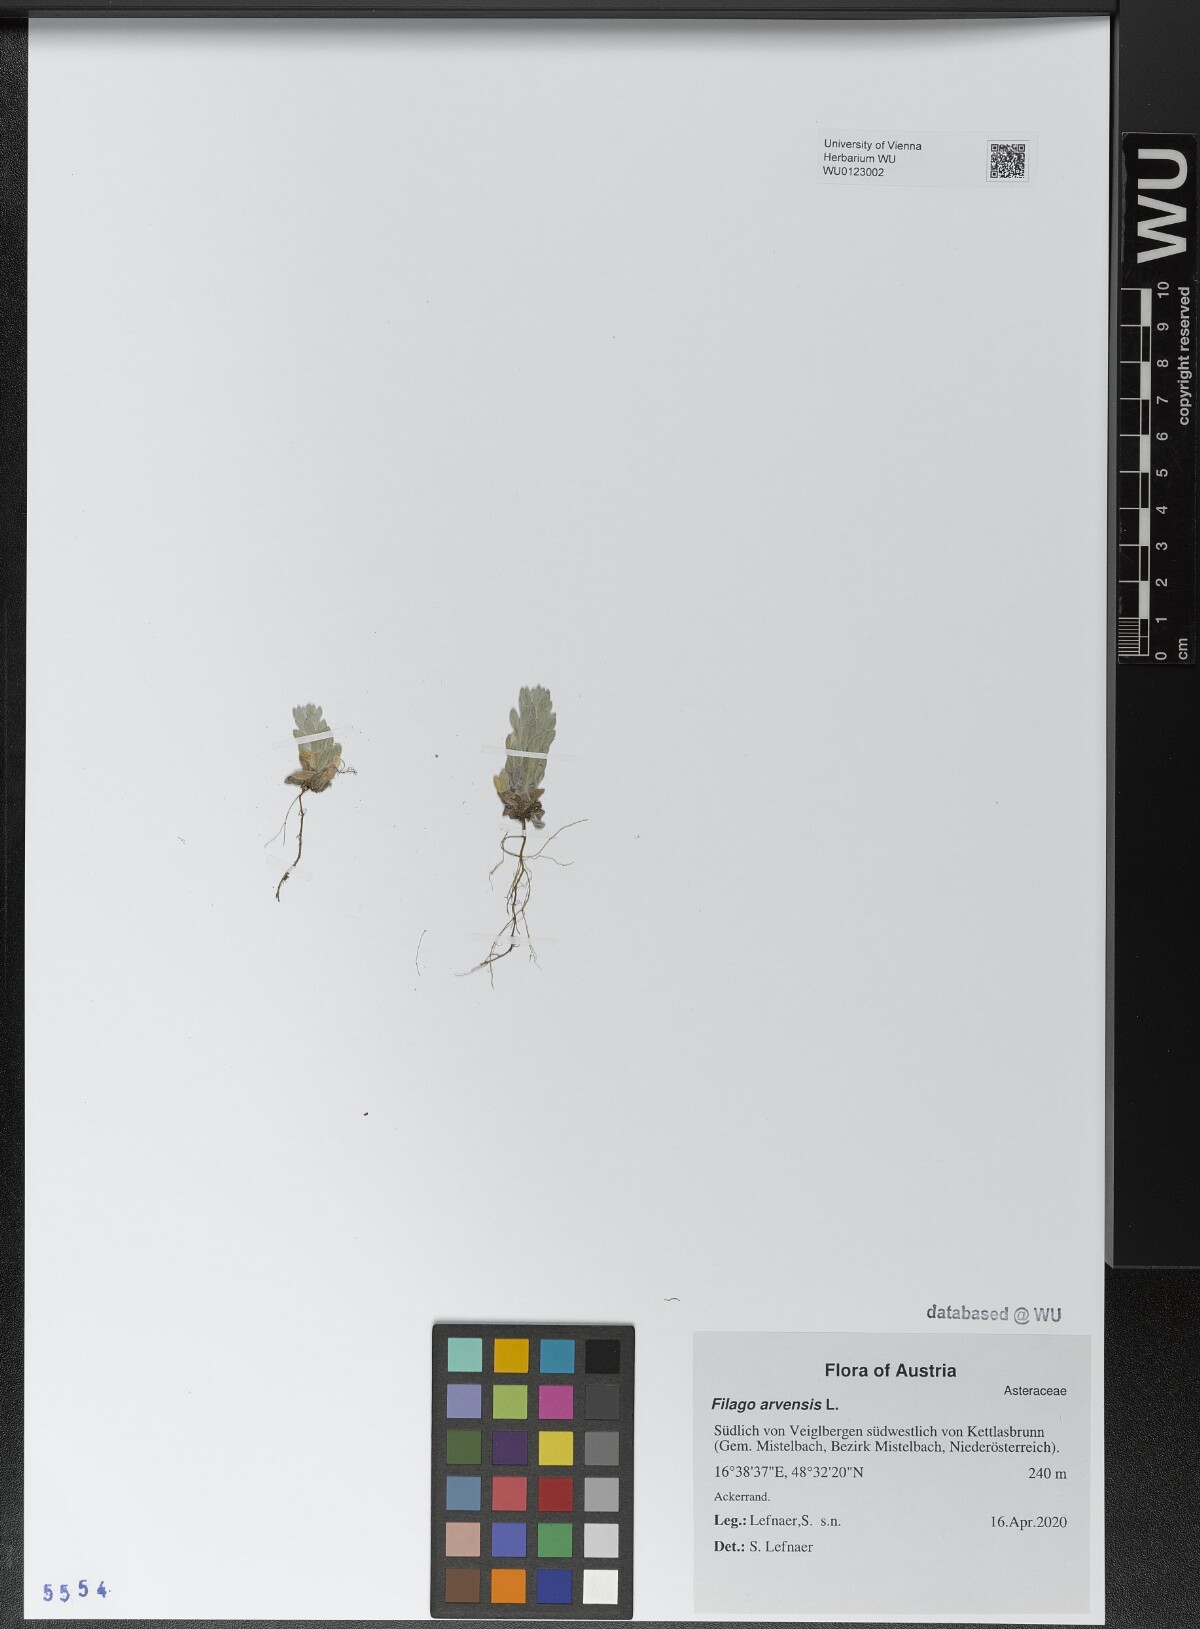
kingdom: Plantae
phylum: Tracheophyta
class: Magnoliopsida
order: Asterales
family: Asteraceae
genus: Filago
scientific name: Filago arvensis
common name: Field cudweed
